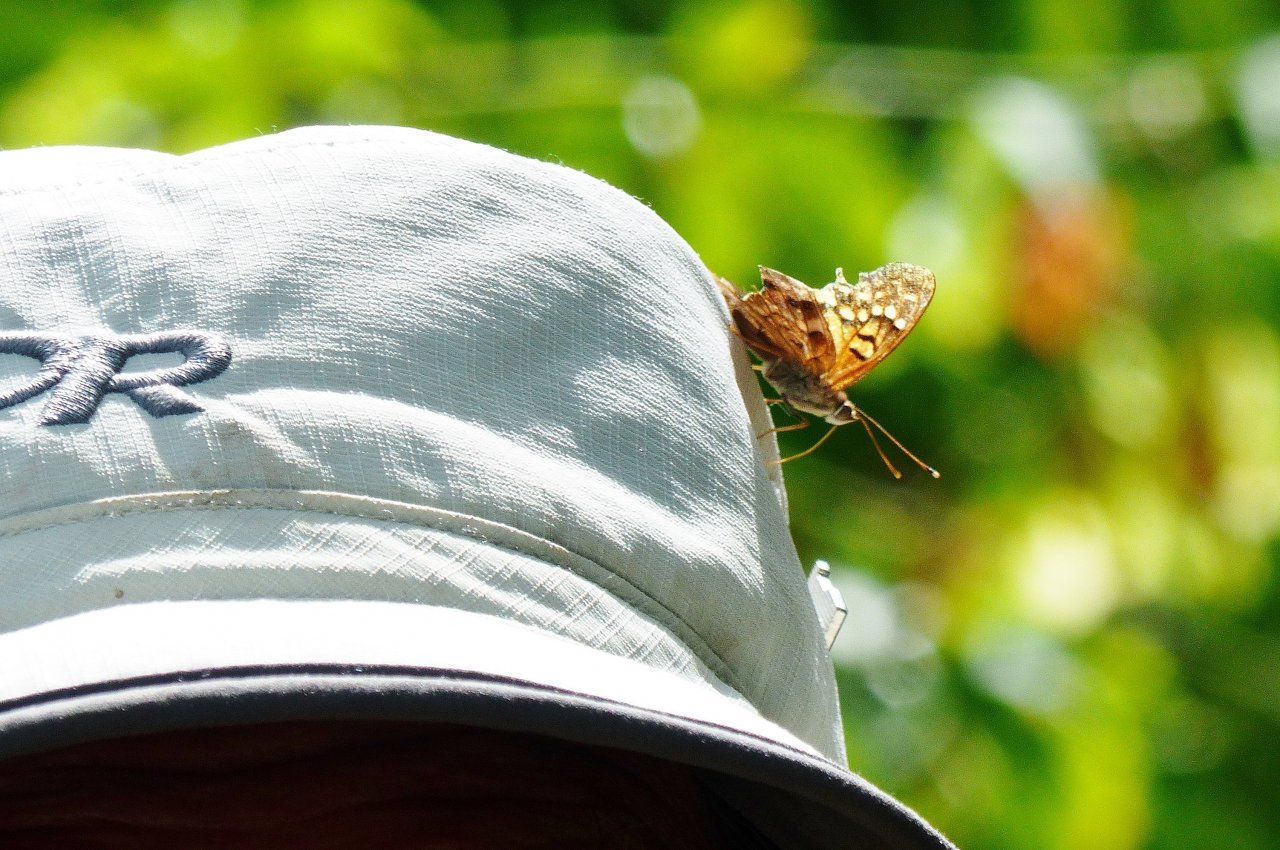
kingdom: Animalia
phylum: Arthropoda
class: Insecta
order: Lepidoptera
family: Nymphalidae
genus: Asterocampa
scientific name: Asterocampa clyton
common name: Tawny Emperor
